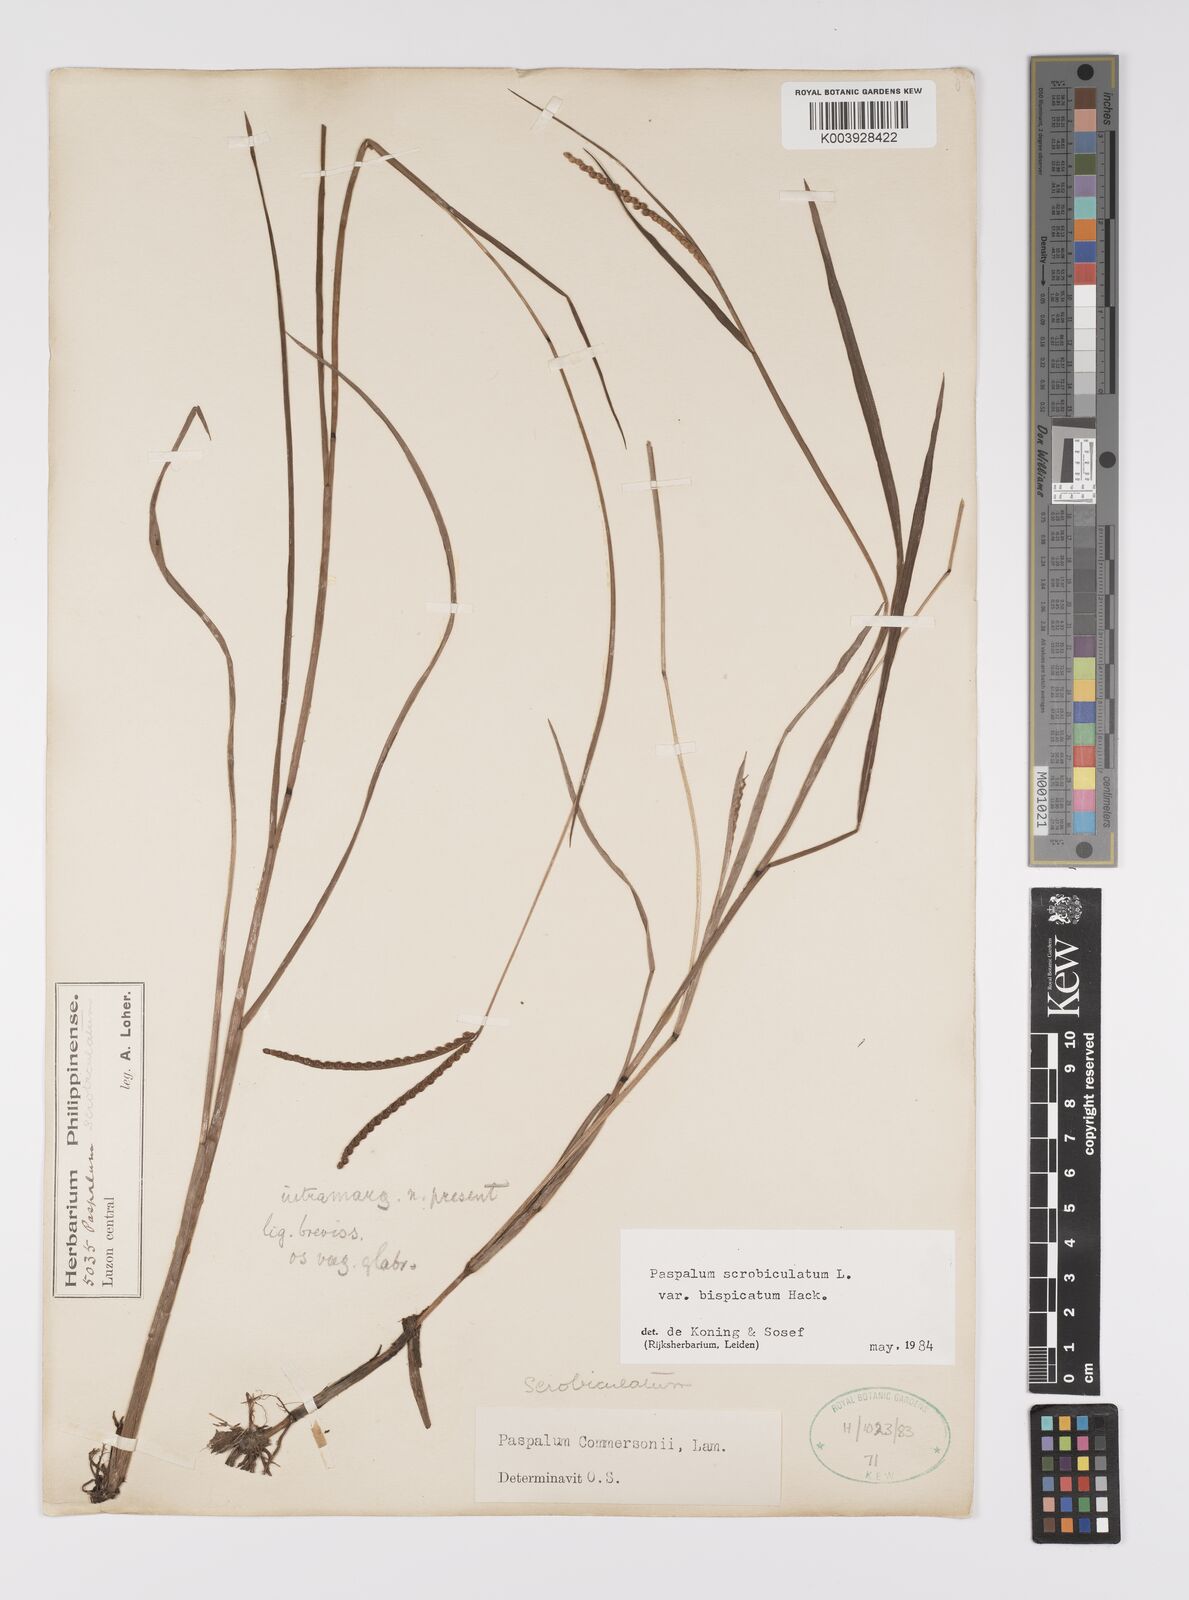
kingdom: Plantae
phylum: Tracheophyta
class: Liliopsida
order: Poales
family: Poaceae
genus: Paspalum
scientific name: Paspalum scrobiculatum
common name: Kodo millet
